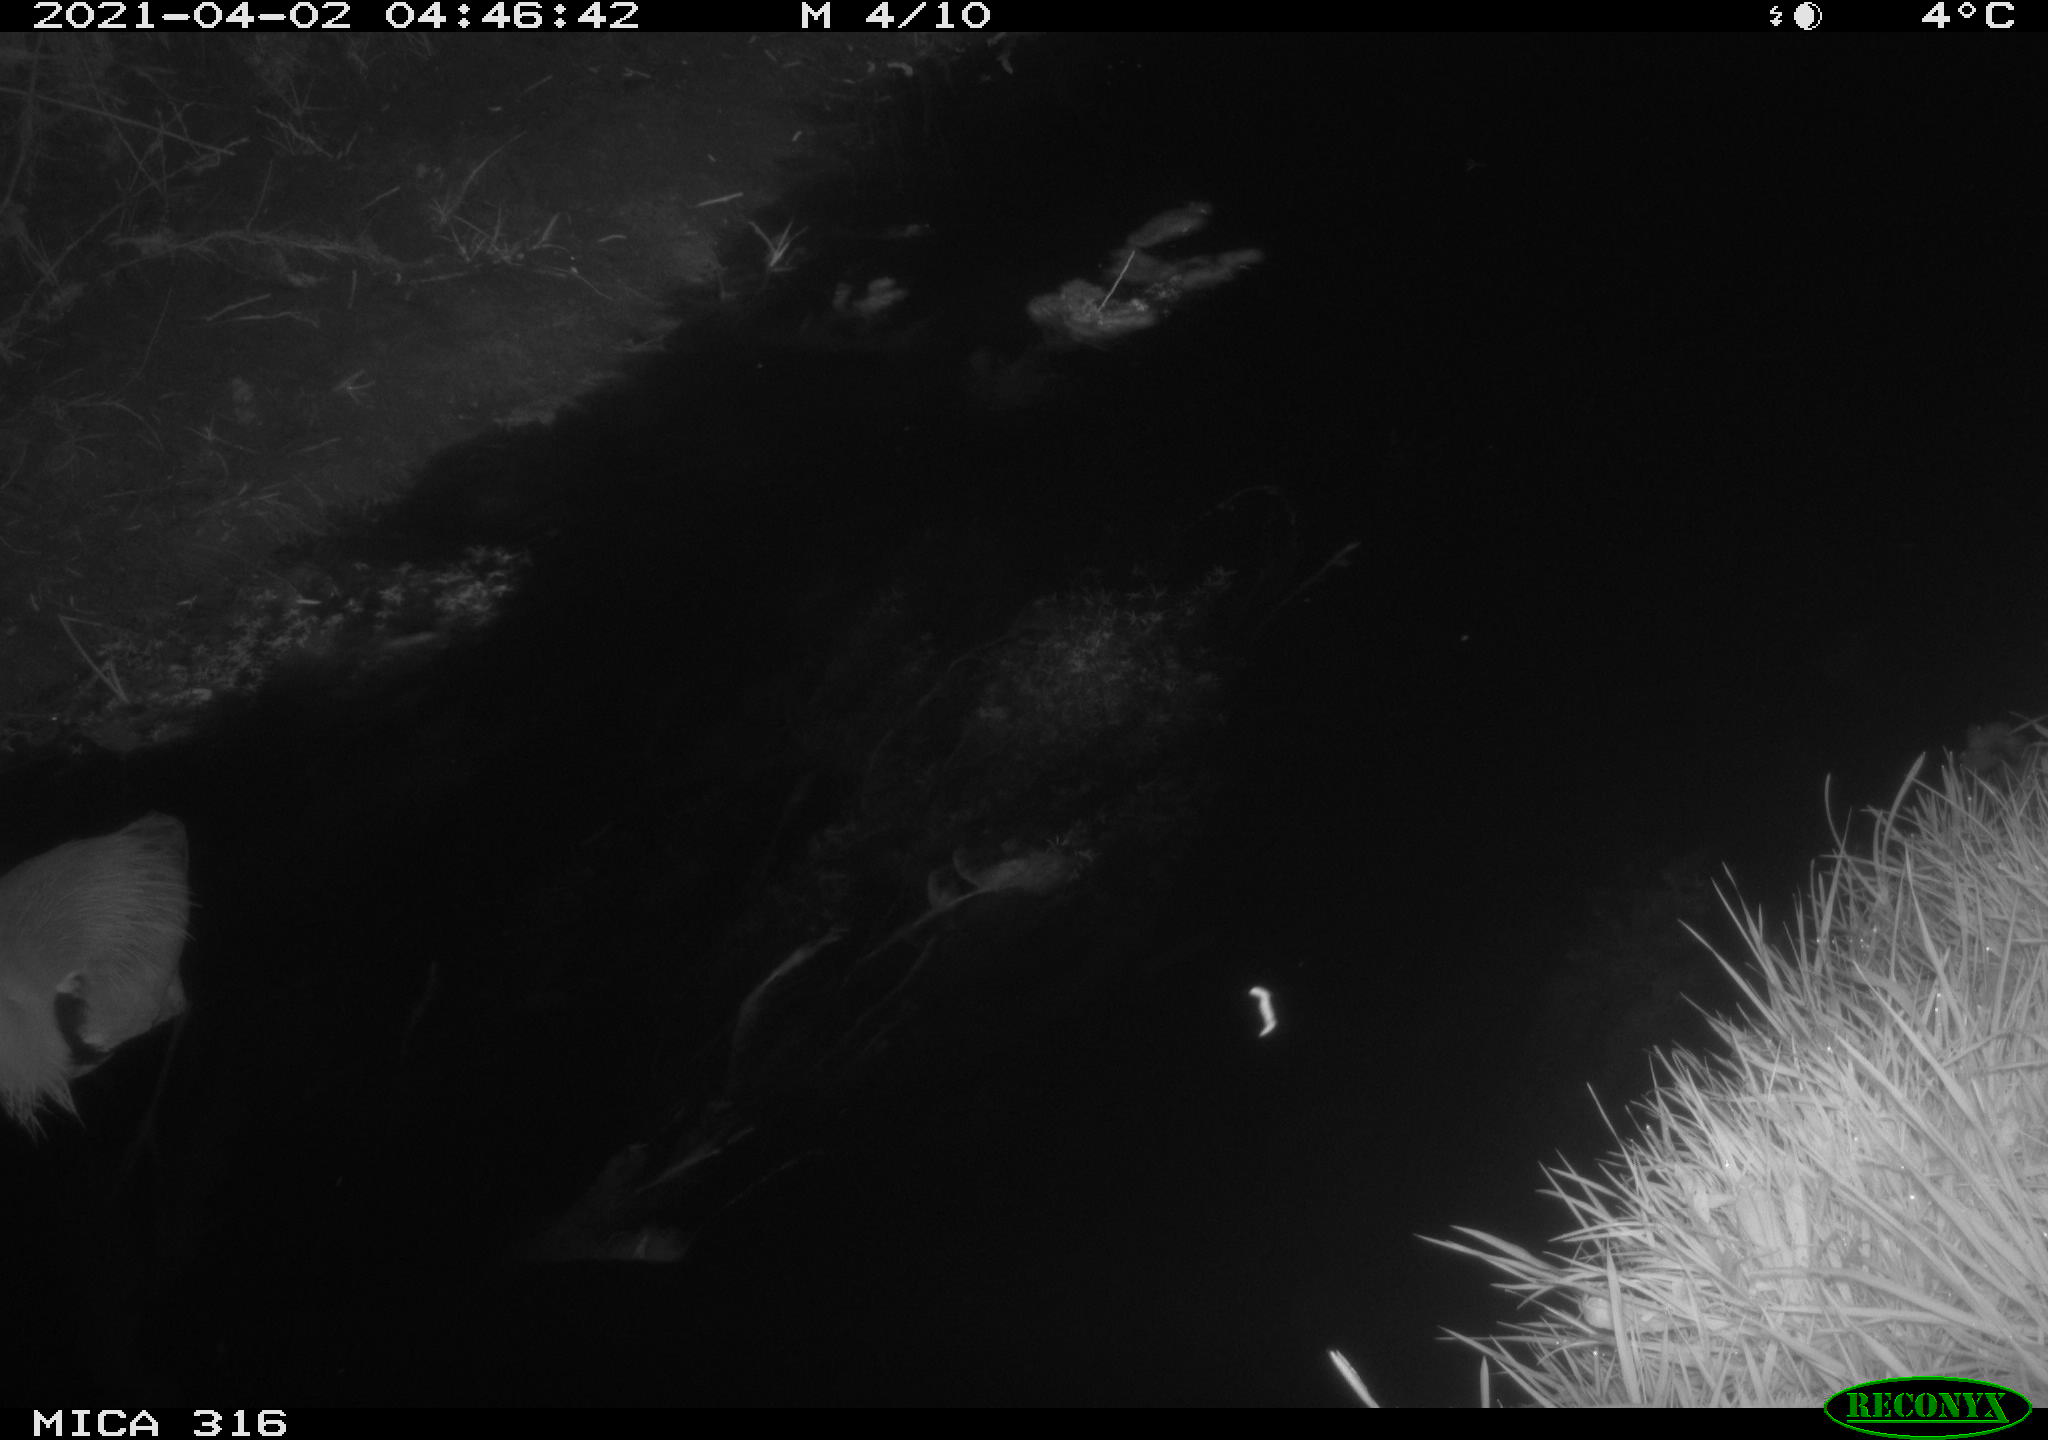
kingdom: Animalia
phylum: Chordata
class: Aves
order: Pelecaniformes
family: Ardeidae
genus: Ardea
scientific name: Ardea cinerea
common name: Grey heron
